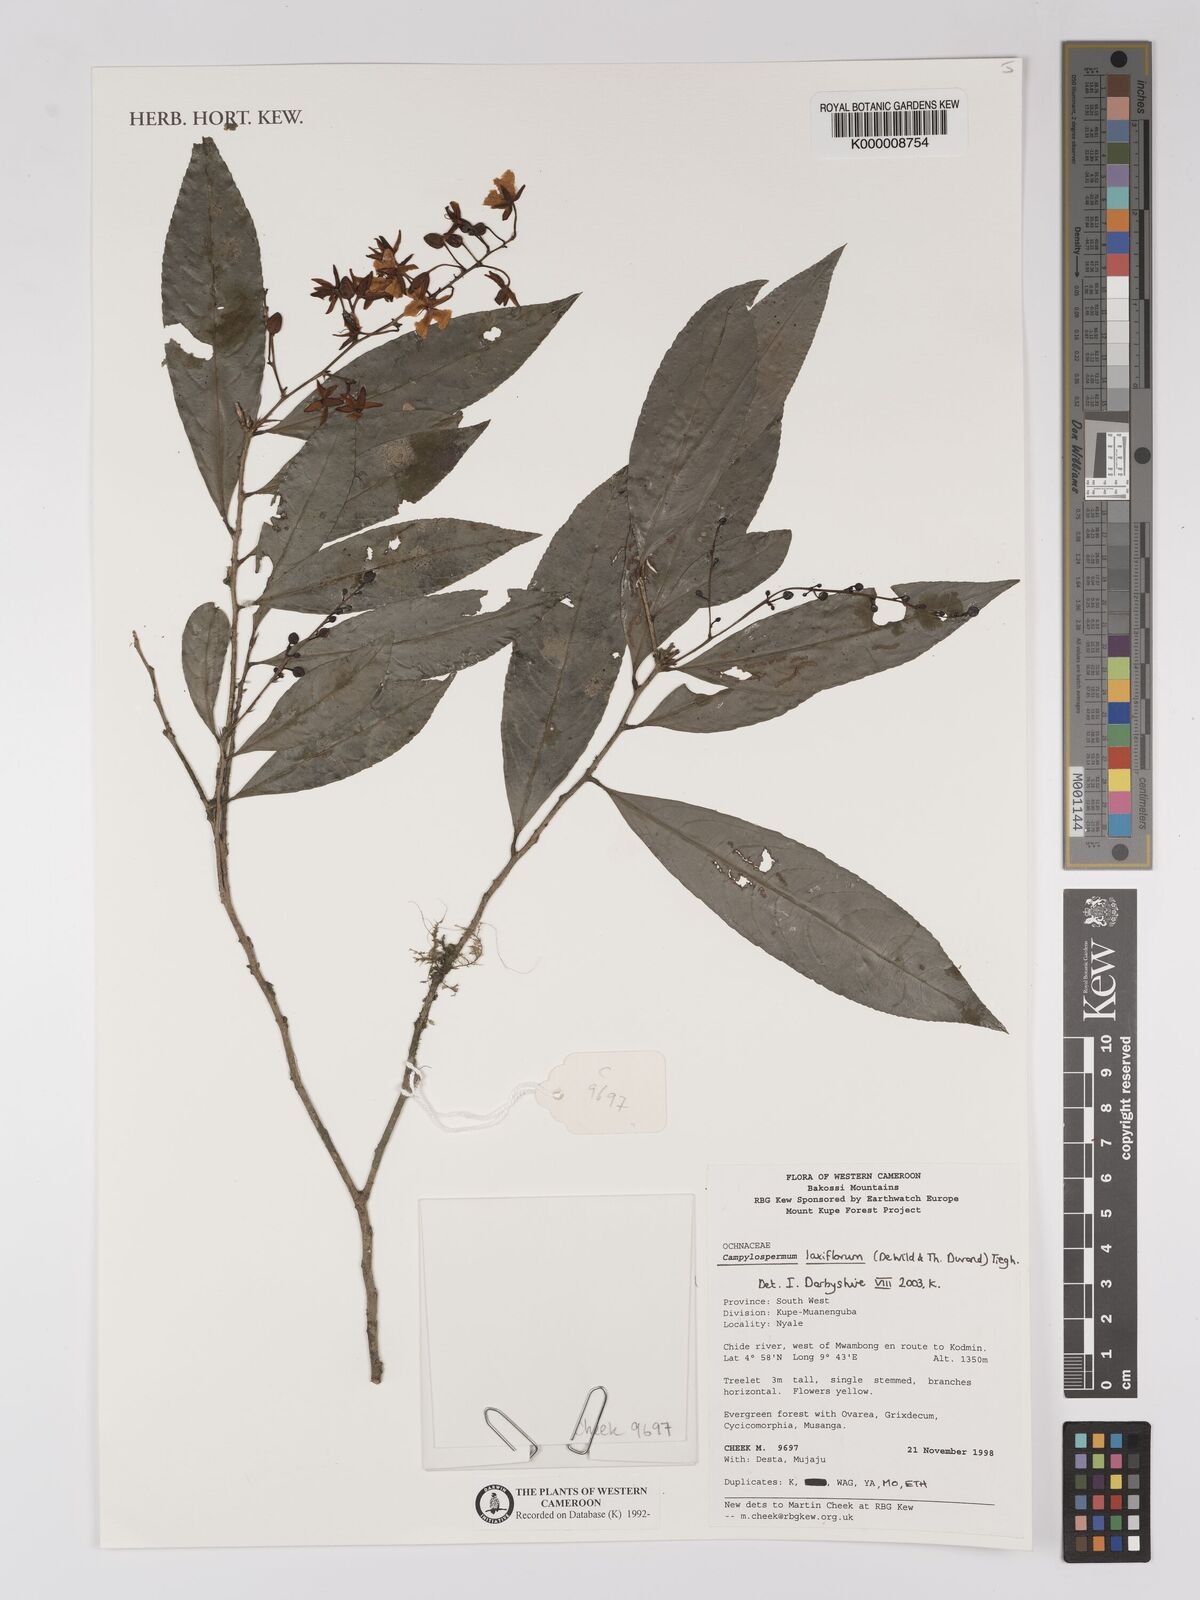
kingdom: Plantae
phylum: Tracheophyta
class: Magnoliopsida
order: Malpighiales
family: Ochnaceae
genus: Campylospermum
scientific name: Campylospermum laxiflorum
